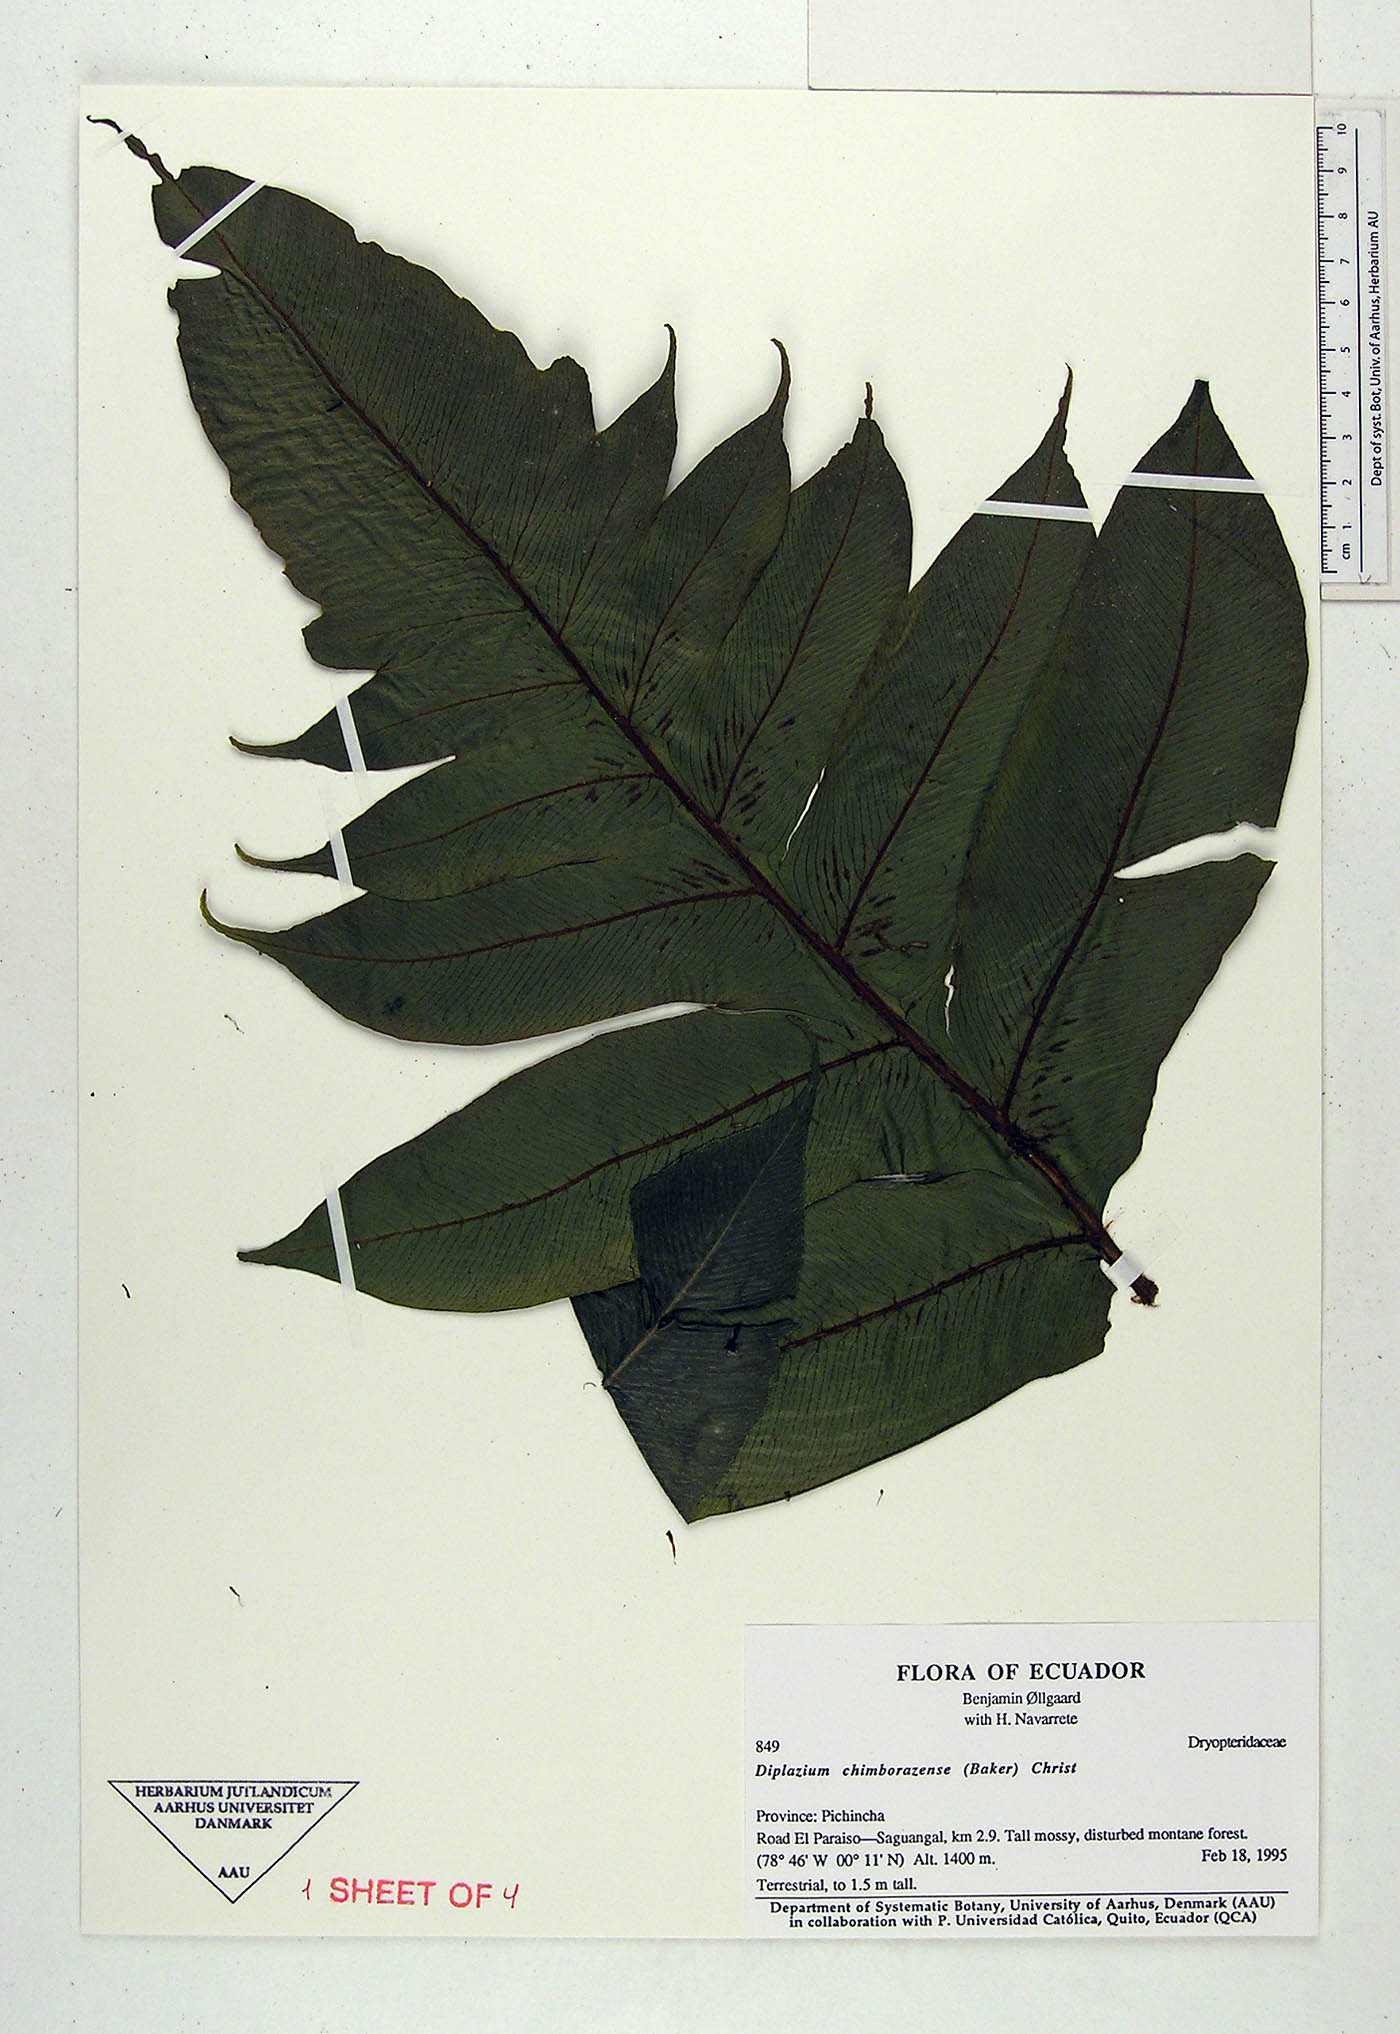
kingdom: Plantae
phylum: Tracheophyta
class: Polypodiopsida
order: Polypodiales
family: Athyriaceae
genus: Diplazium
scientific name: Diplazium chimborazense
